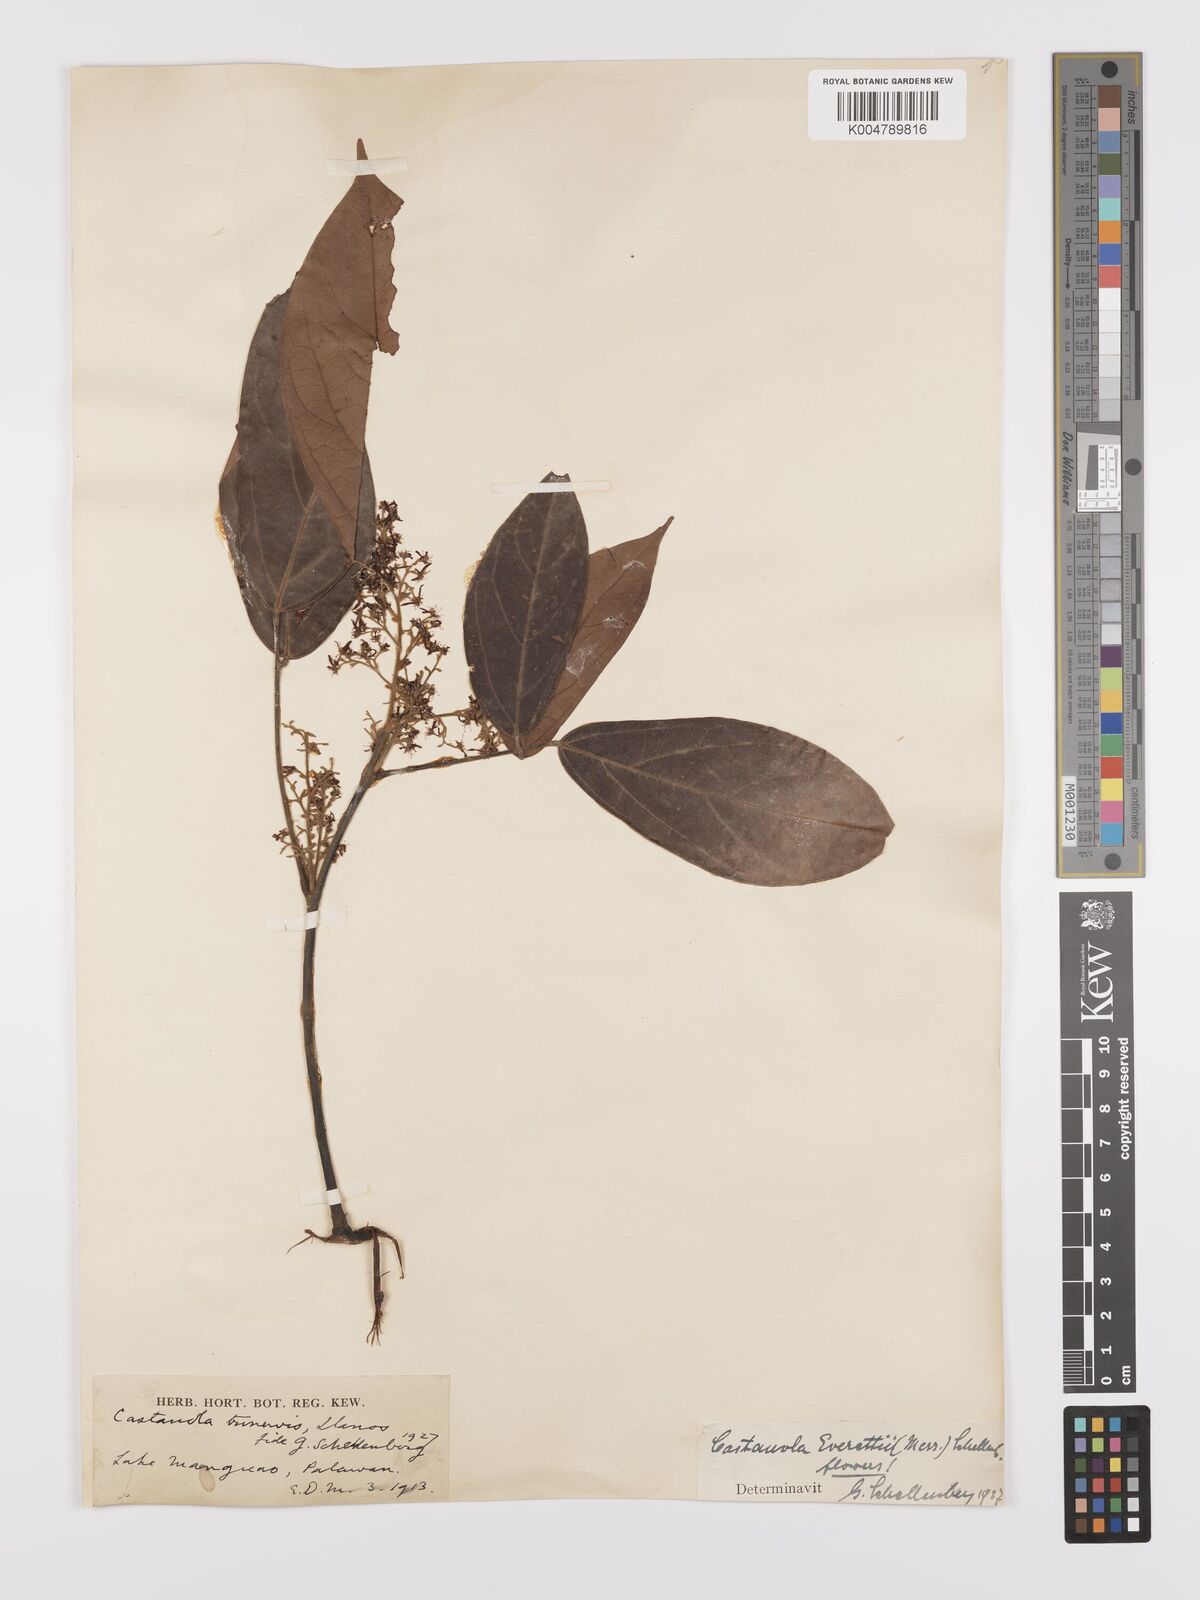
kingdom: Plantae
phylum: Tracheophyta
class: Magnoliopsida
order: Oxalidales
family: Connaraceae
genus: Agelaea
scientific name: Agelaea borneensis
